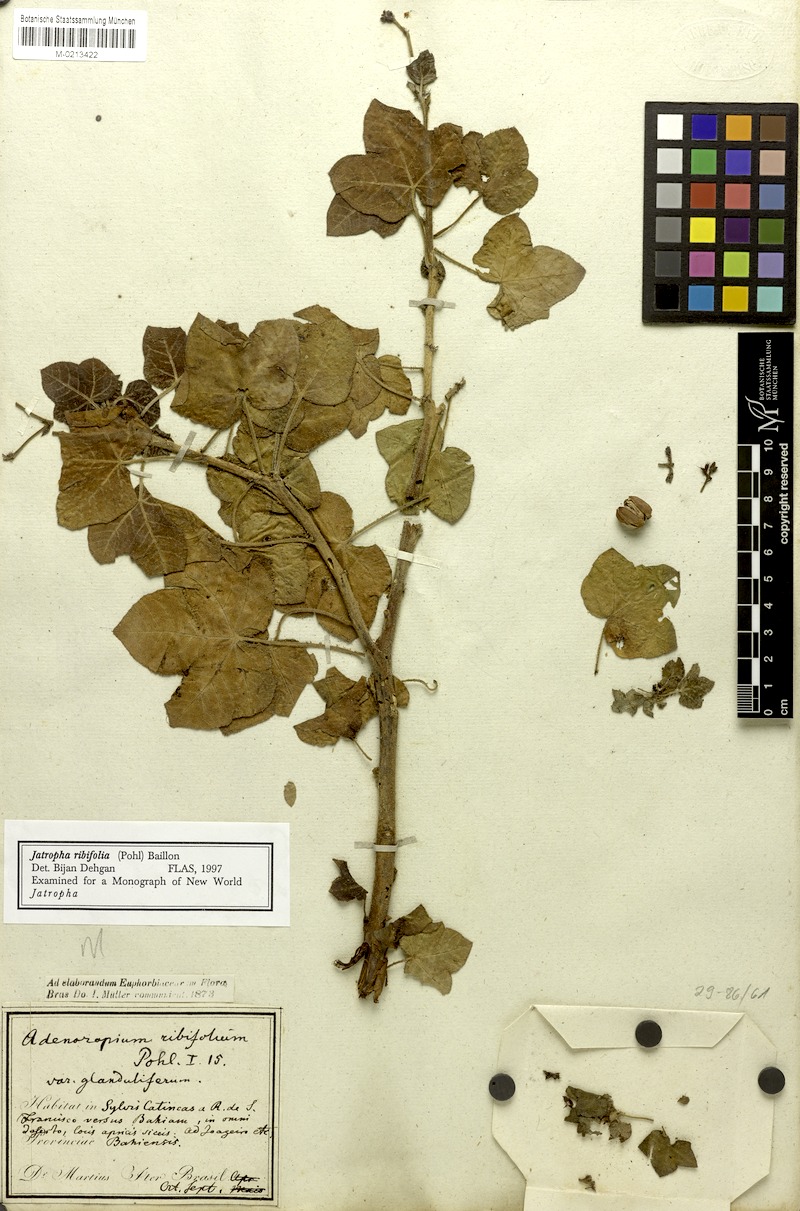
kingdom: Plantae
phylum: Tracheophyta
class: Magnoliopsida
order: Malpighiales
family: Euphorbiaceae
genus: Jatropha
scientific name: Jatropha ribifolia
